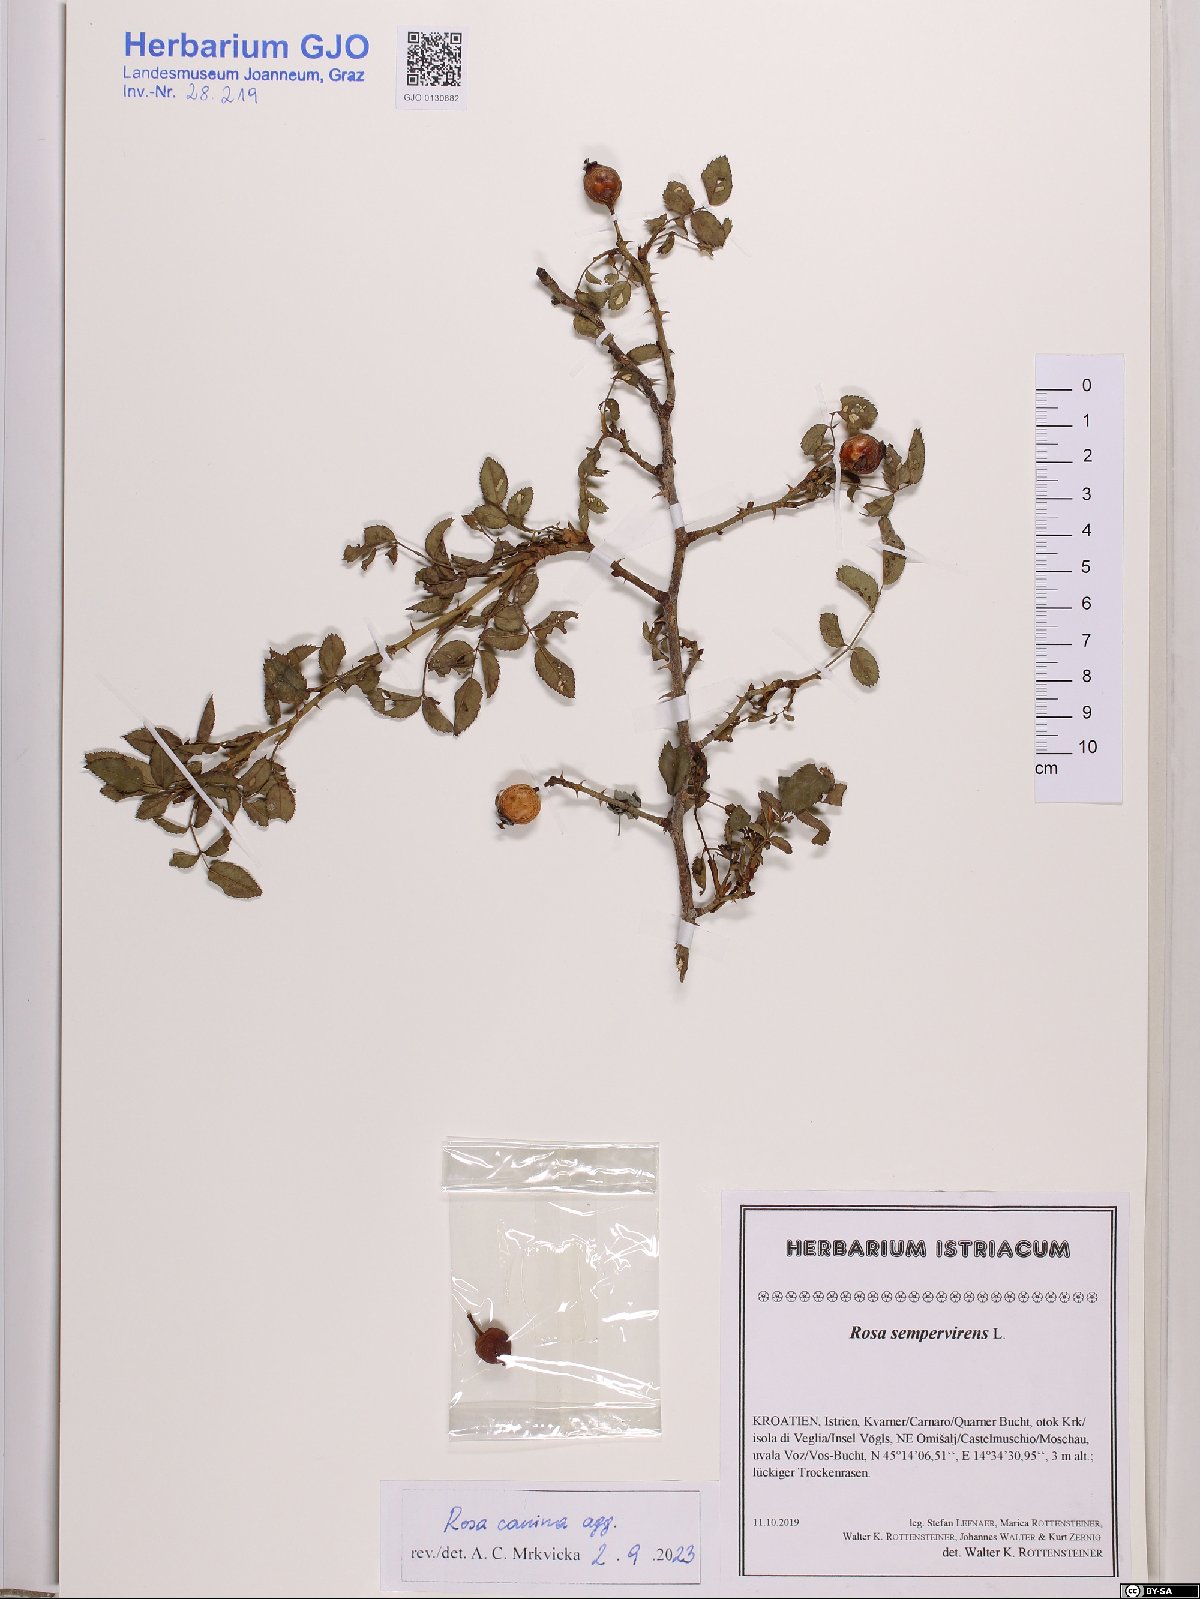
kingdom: Plantae
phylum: Tracheophyta
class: Magnoliopsida
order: Rosales
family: Rosaceae
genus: Rosa
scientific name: Rosa canina
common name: Dog rose
